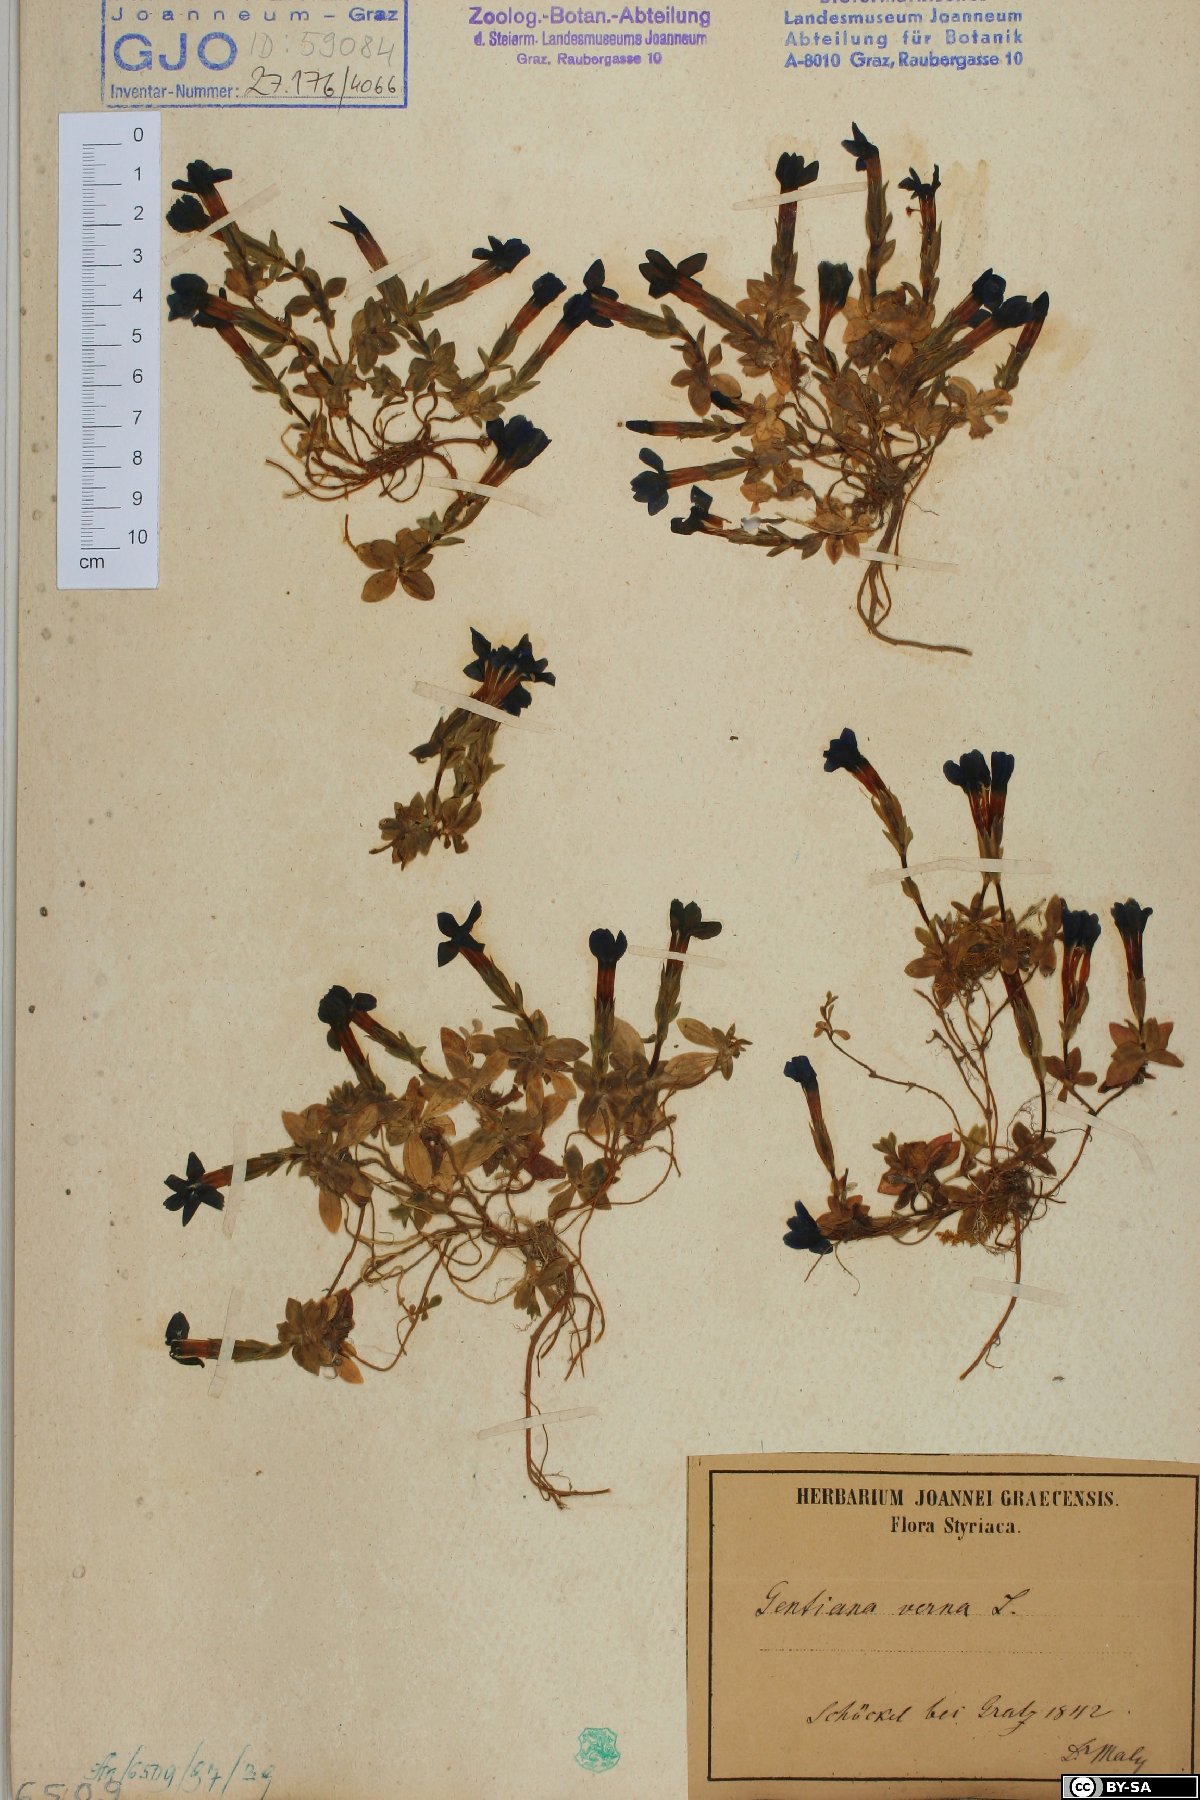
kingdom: Plantae
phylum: Tracheophyta
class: Magnoliopsida
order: Gentianales
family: Gentianaceae
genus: Gentiana
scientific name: Gentiana verna
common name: Spring gentian
